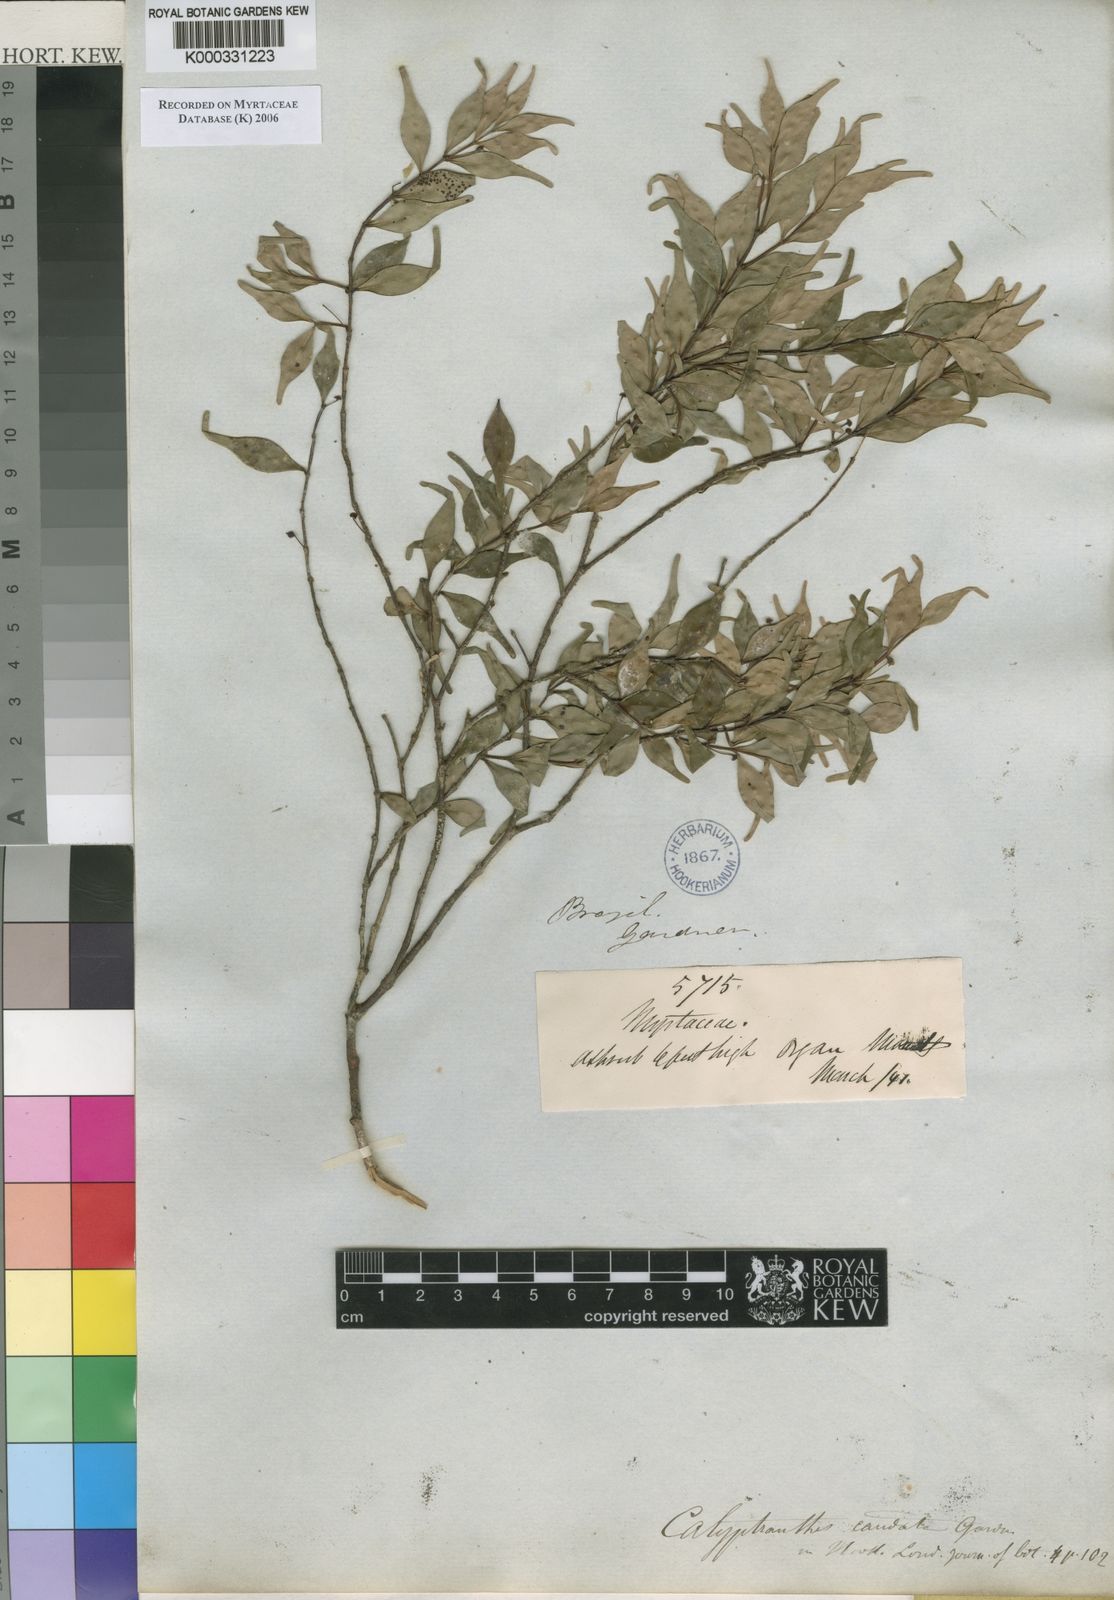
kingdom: Plantae
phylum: Tracheophyta
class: Magnoliopsida
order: Myrtales
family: Myrtaceae
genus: Myrcia
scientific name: Myrcia neocaudata
